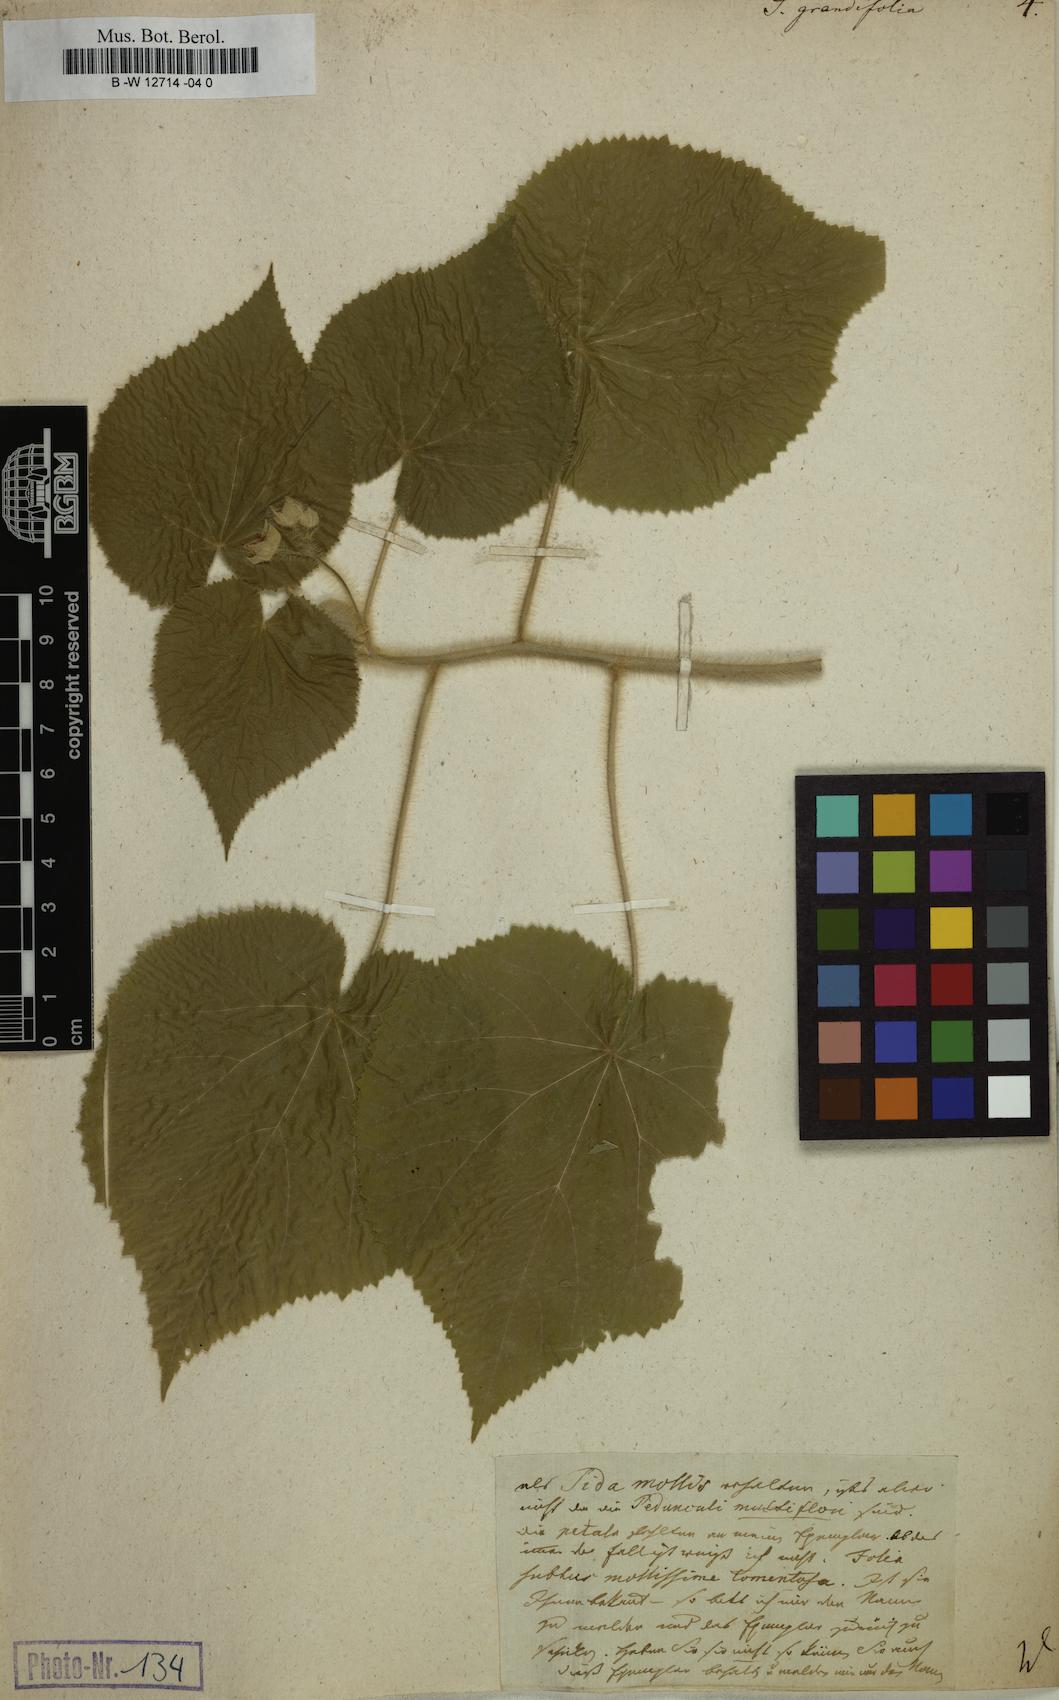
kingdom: Plantae
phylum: Tracheophyta
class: Magnoliopsida
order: Malvales
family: Malvaceae
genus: Abutilon
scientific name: Abutilon grandifolium
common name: Hairy abutilon
